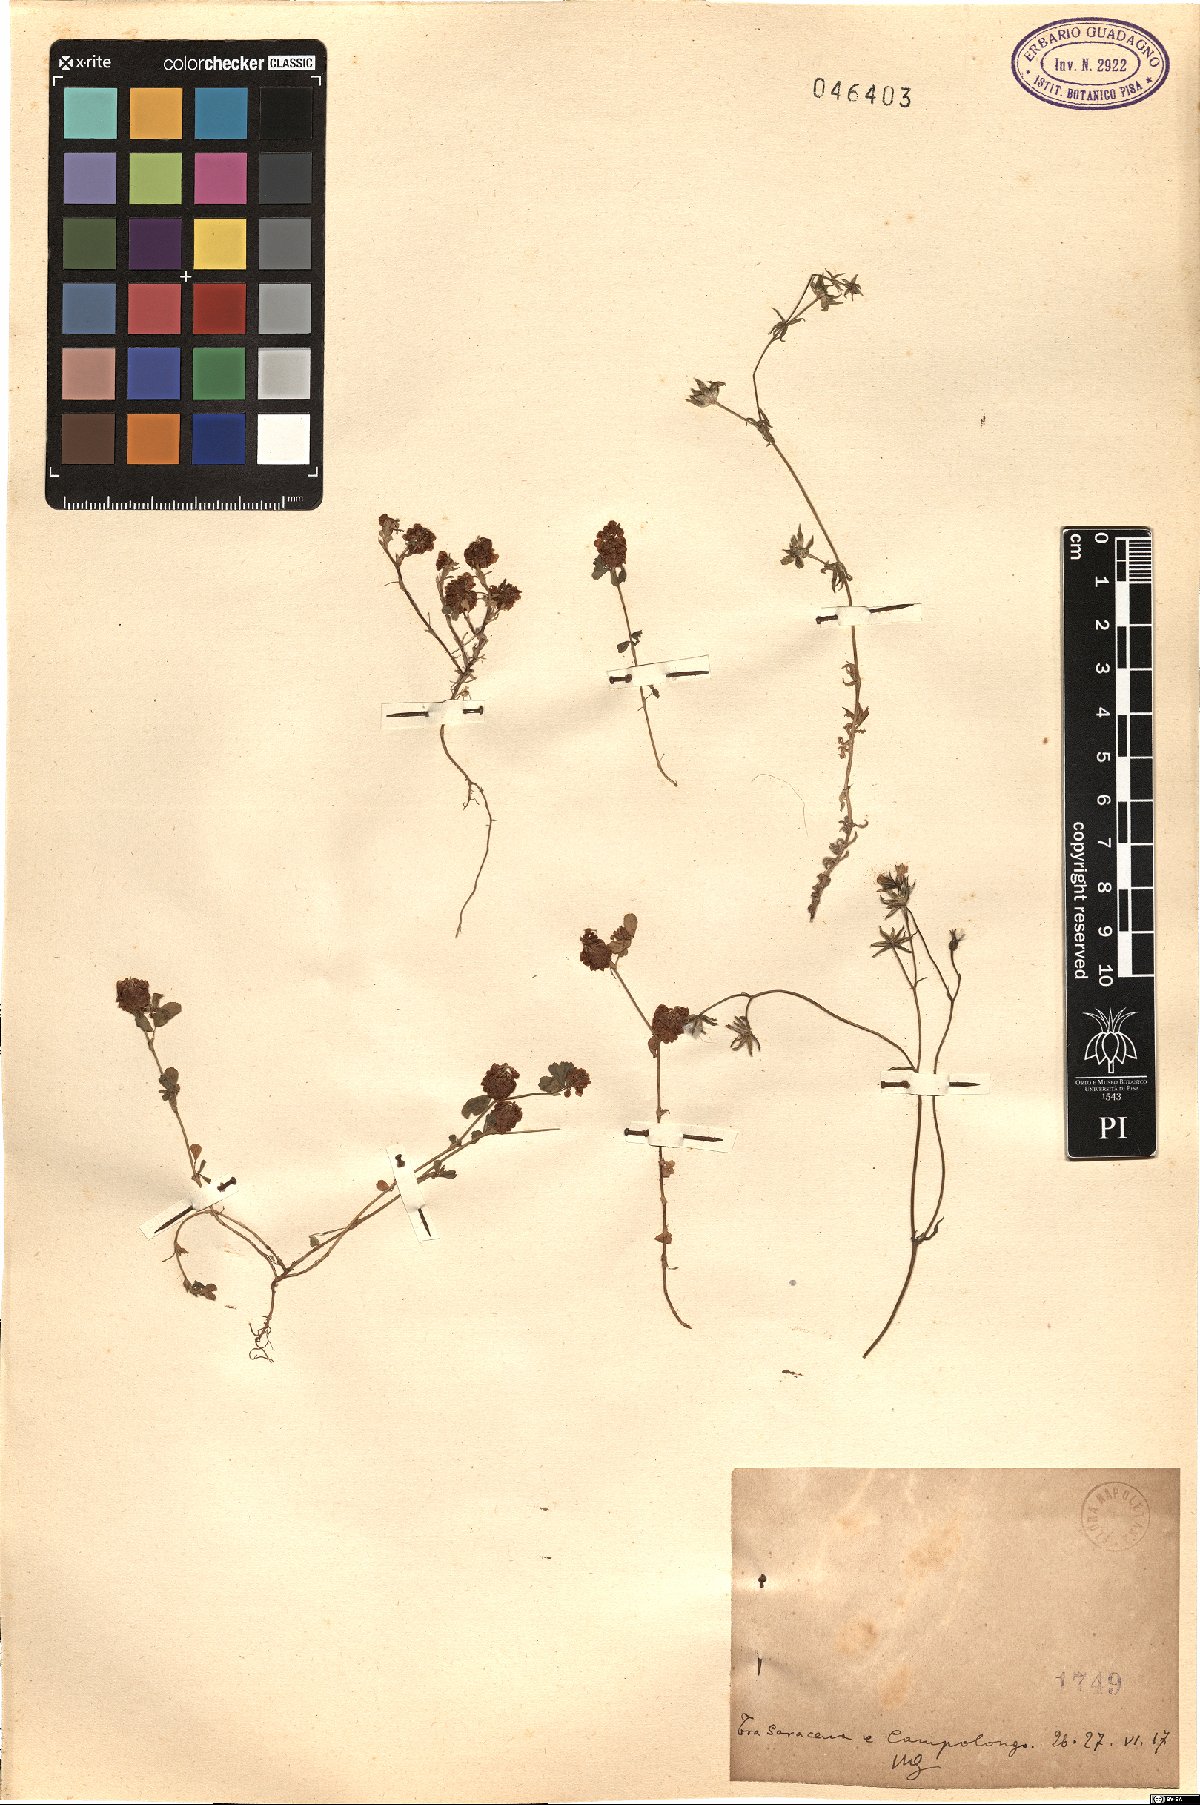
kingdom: Plantae
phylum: Tracheophyta
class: Magnoliopsida
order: Fabales
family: Fabaceae
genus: Trifolium
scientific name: Trifolium
